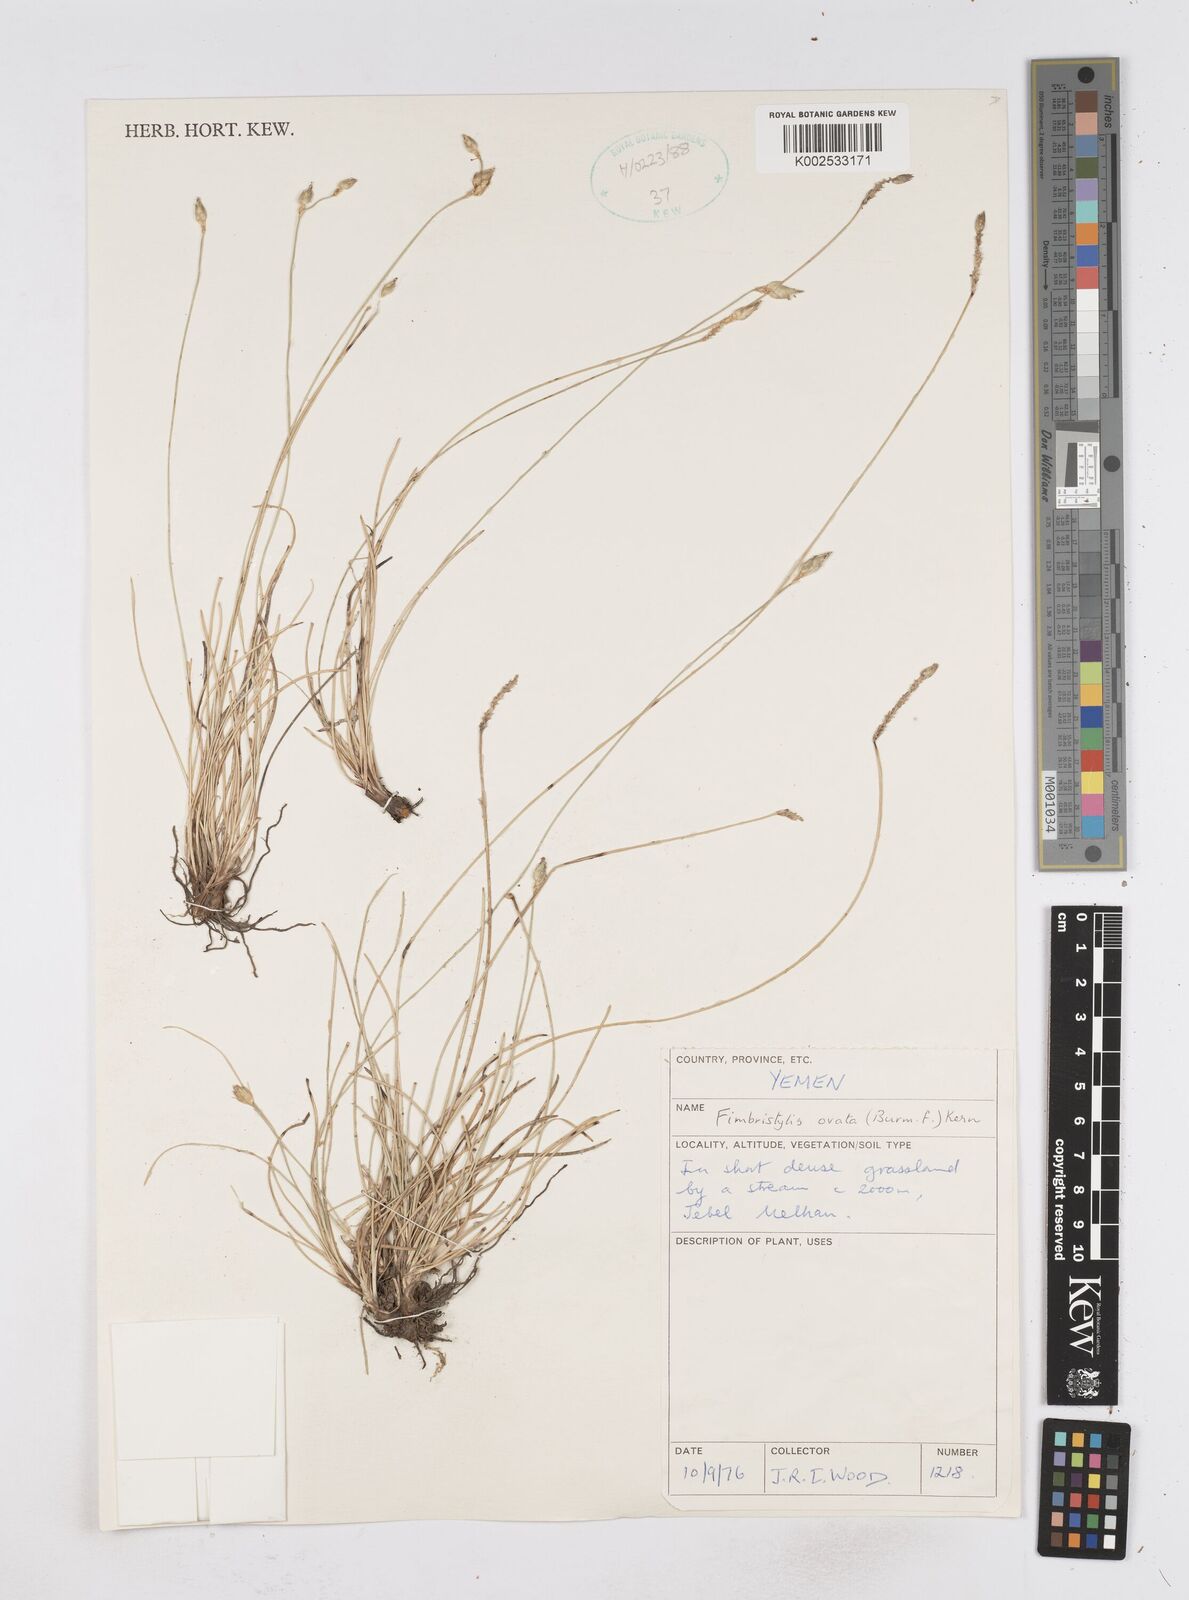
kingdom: Plantae
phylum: Tracheophyta
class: Liliopsida
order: Poales
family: Cyperaceae
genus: Abildgaardia
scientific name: Abildgaardia ovata
